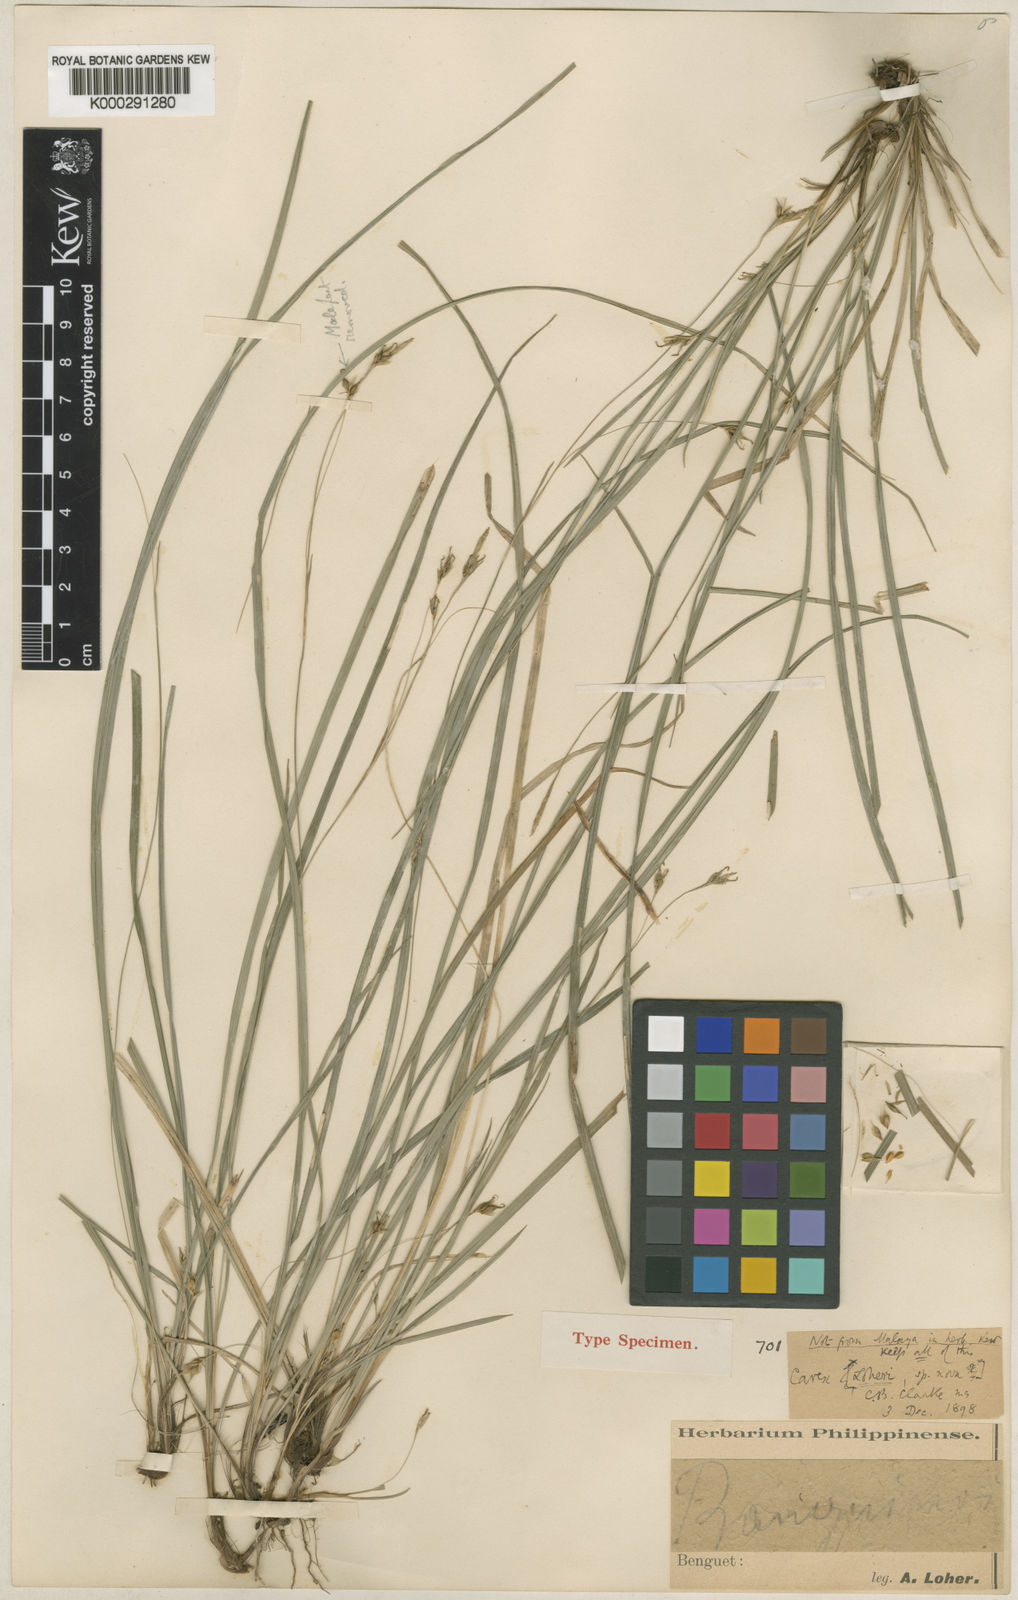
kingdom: Plantae
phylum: Tracheophyta
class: Liliopsida
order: Poales
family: Cyperaceae
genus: Carex
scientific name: Carex oxyphylla
